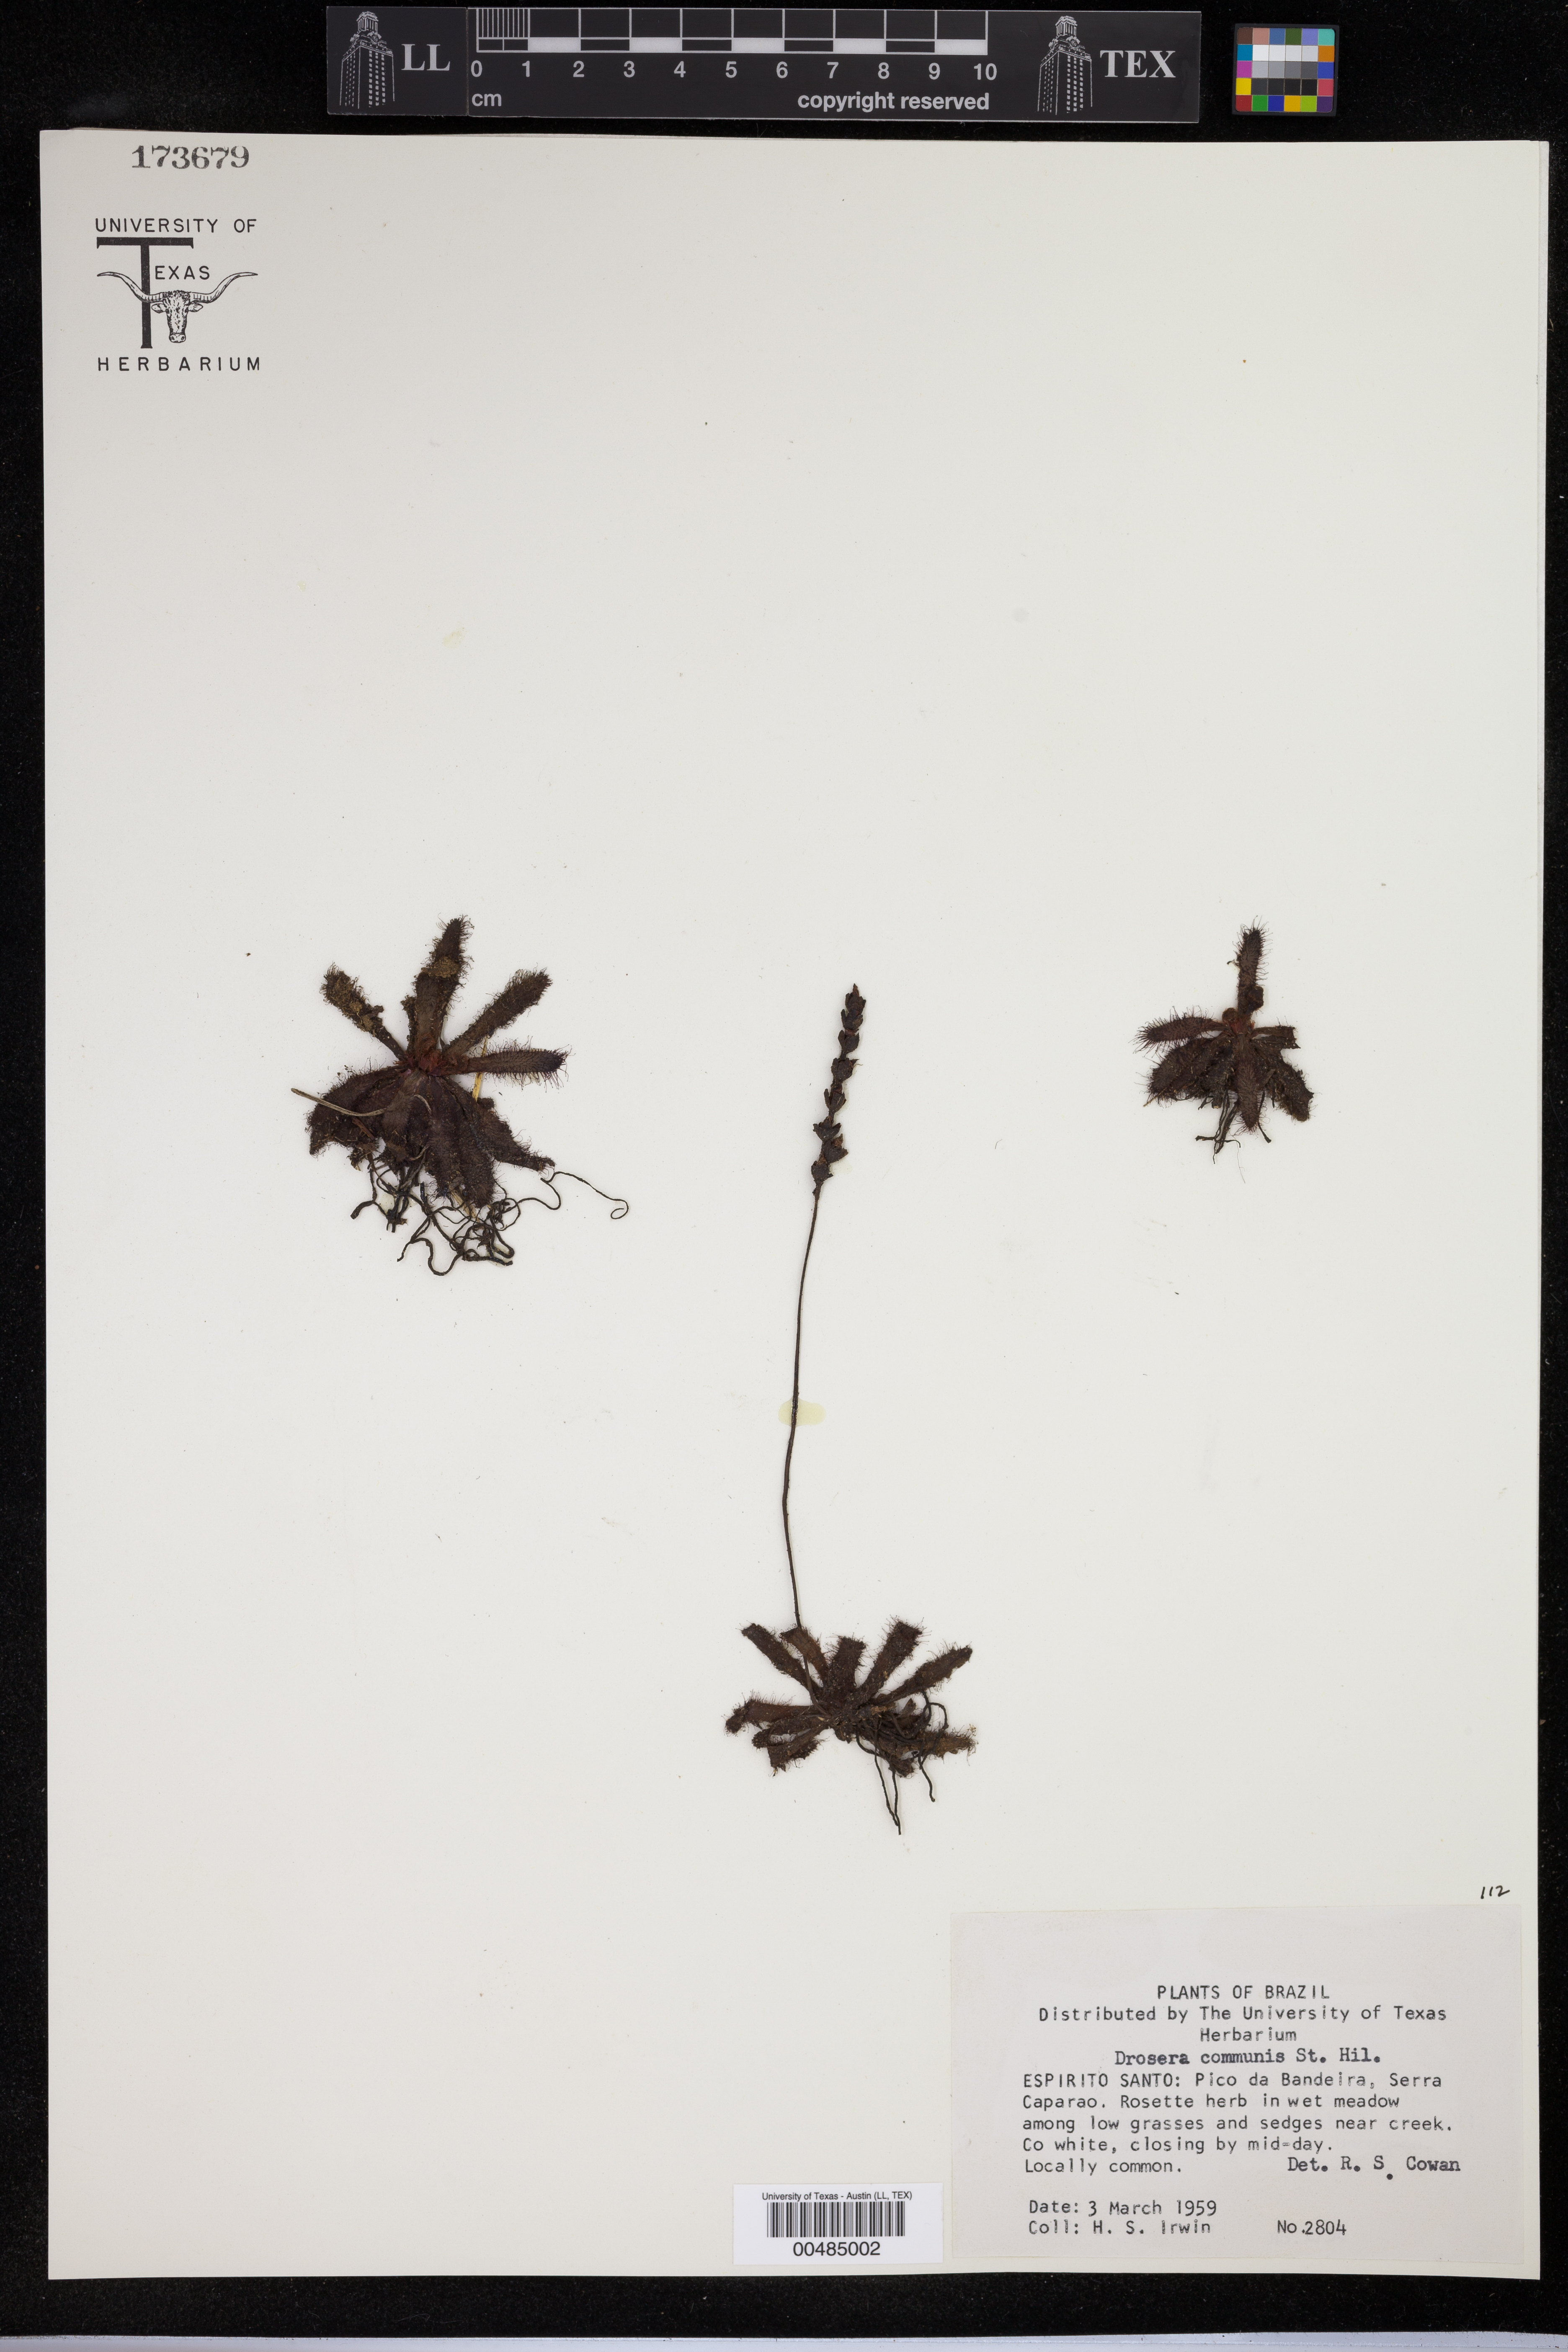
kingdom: Plantae
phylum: Tracheophyta
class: Magnoliopsida
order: Caryophyllales
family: Droseraceae
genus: Drosera
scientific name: Drosera latifolia
